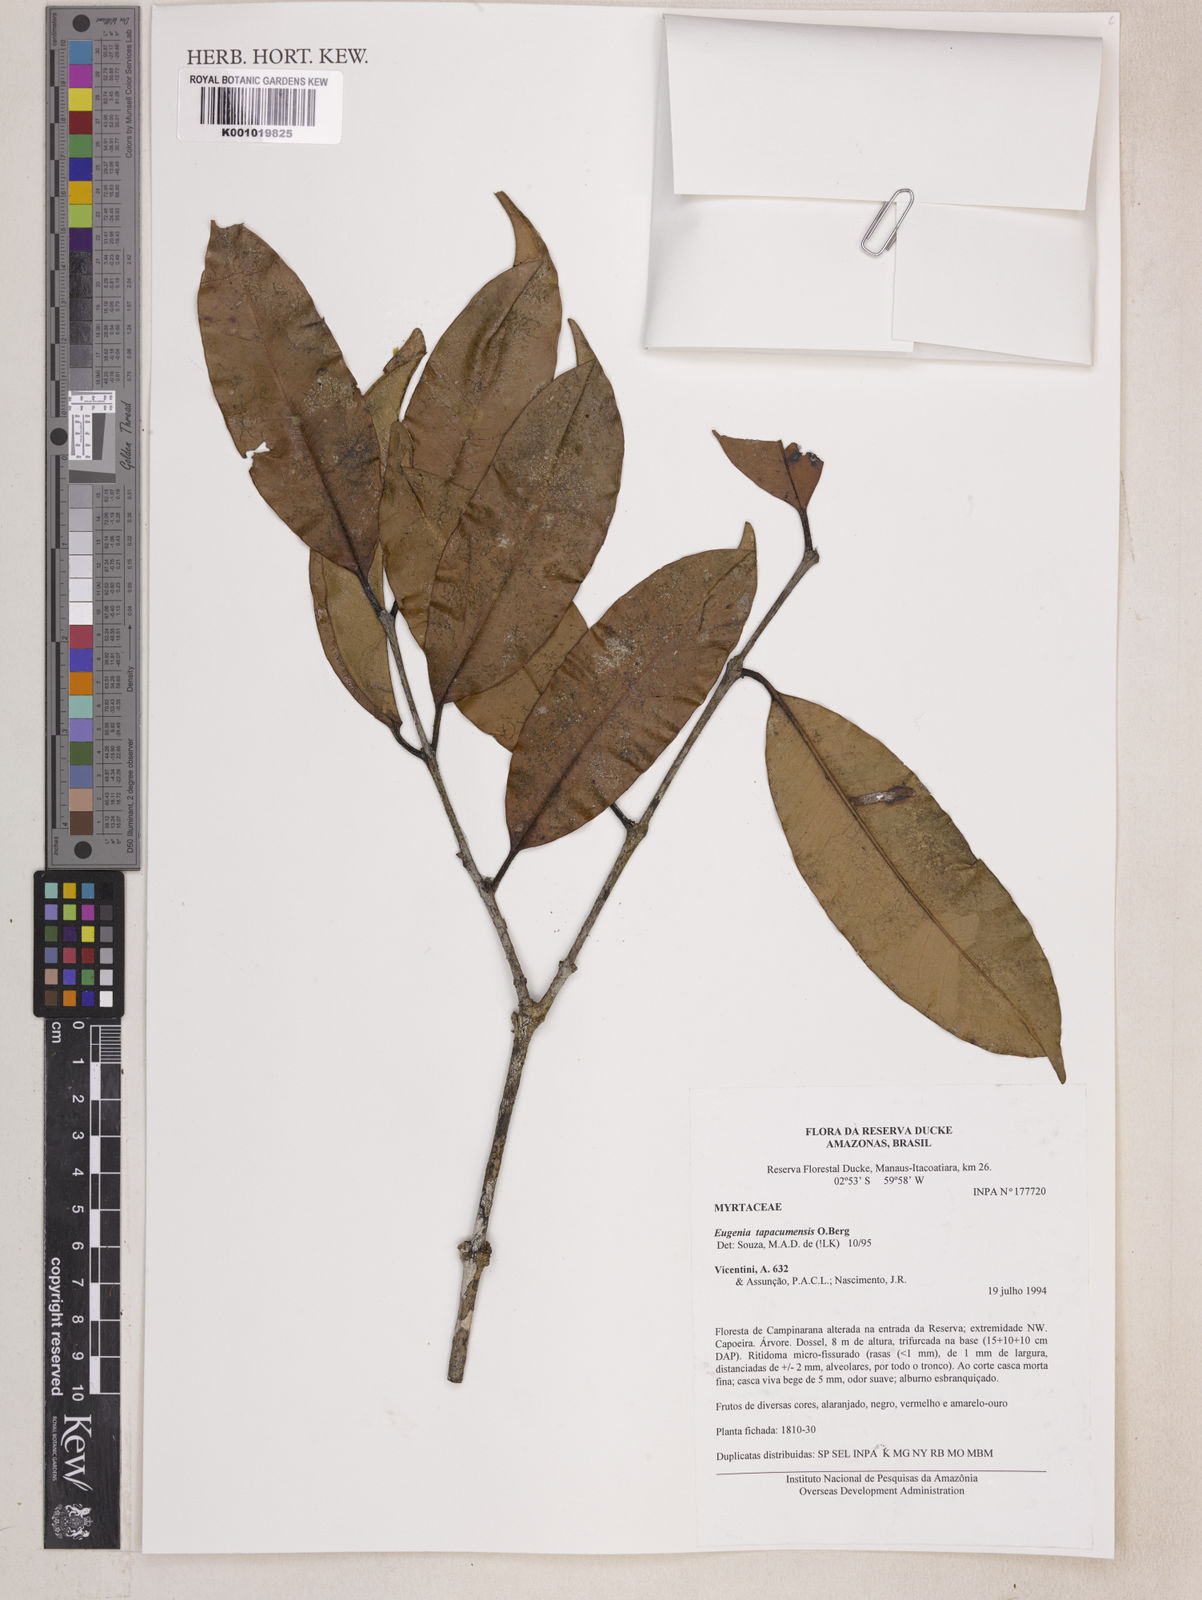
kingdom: Plantae
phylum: Tracheophyta
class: Magnoliopsida
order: Myrtales
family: Myrtaceae
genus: Eugenia
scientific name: Eugenia stictopetala
